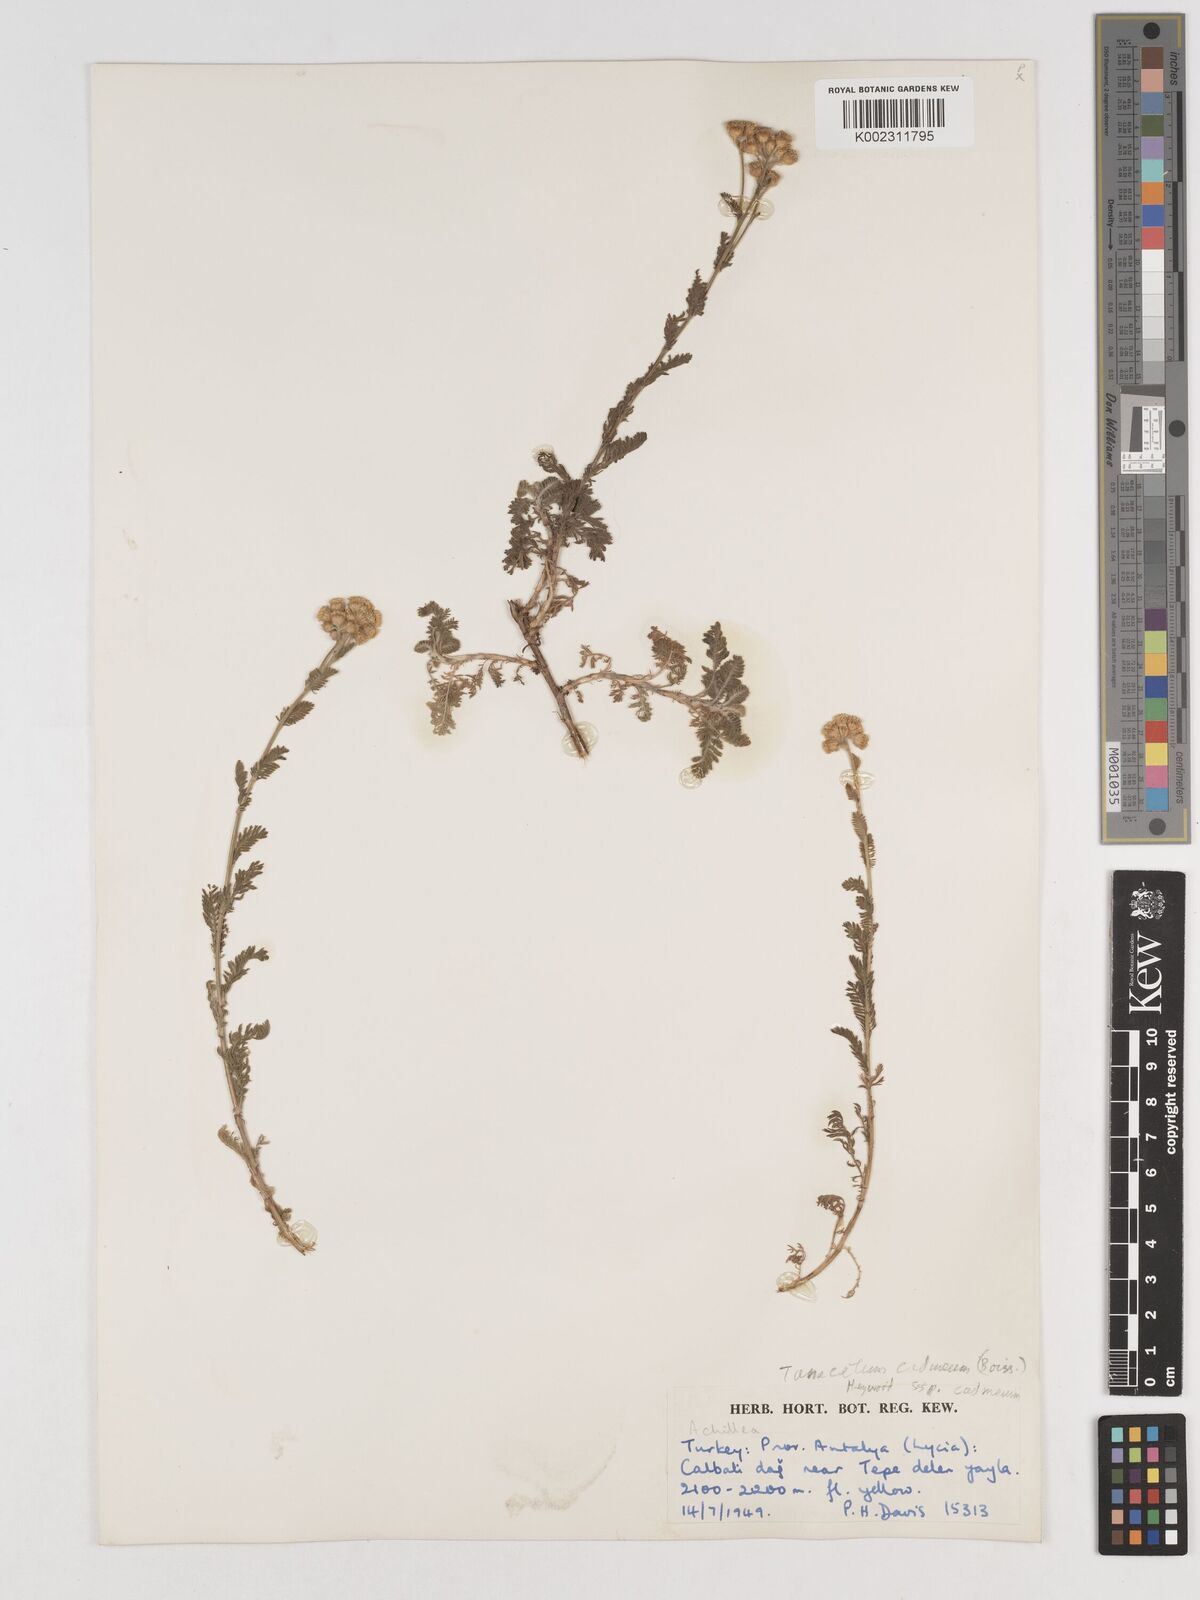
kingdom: Plantae
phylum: Tracheophyta
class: Magnoliopsida
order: Asterales
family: Asteraceae
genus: Tanacetum
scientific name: Tanacetum cadmeum
